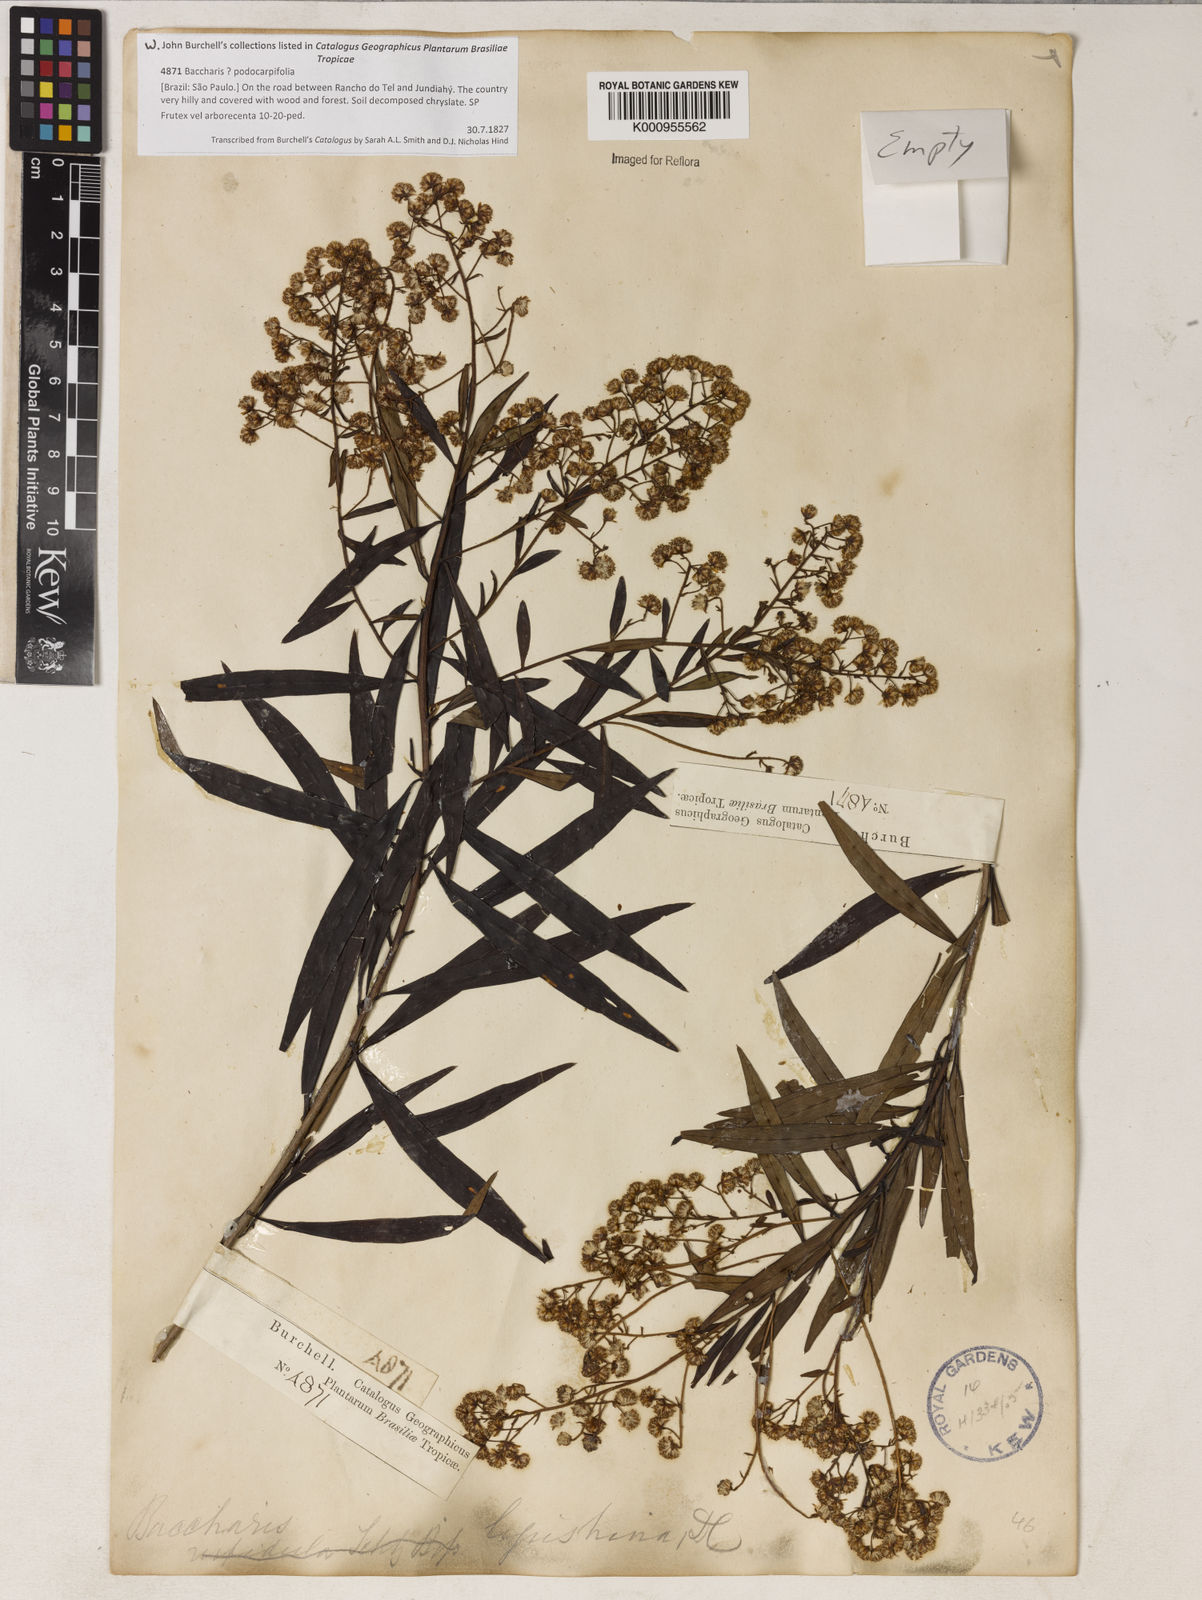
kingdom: Plantae
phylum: Tracheophyta
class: Magnoliopsida
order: Asterales
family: Asteraceae
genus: Baccharis
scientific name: Baccharis ligustrina
